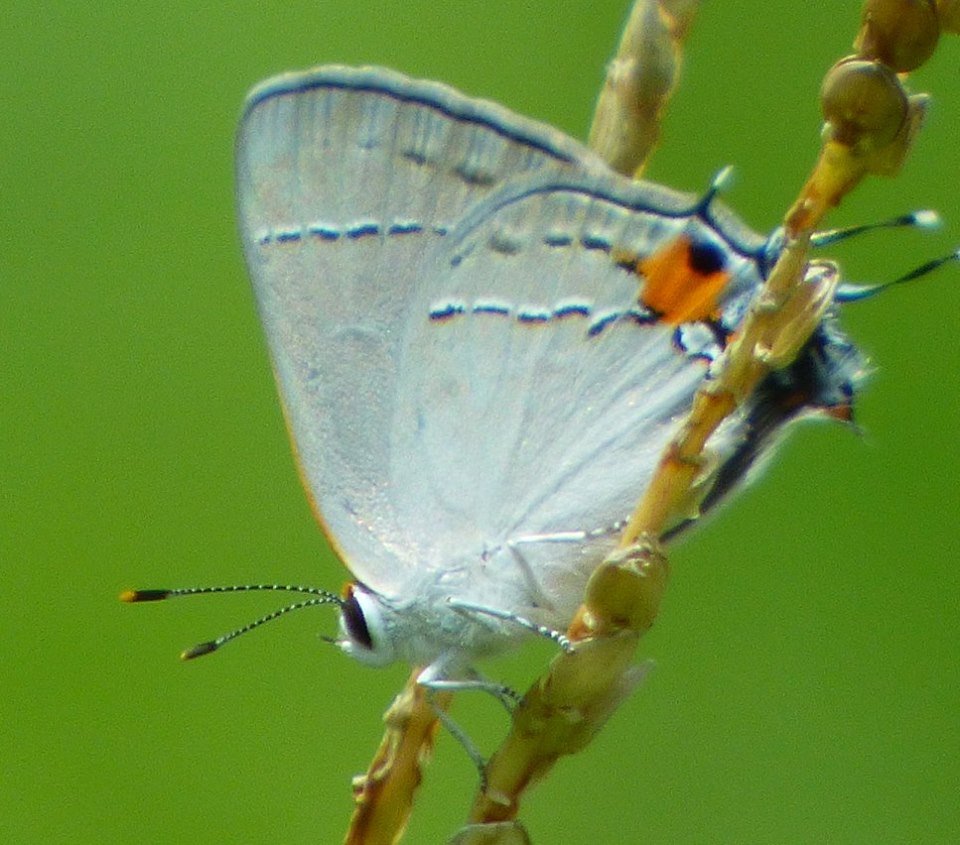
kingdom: Animalia
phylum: Arthropoda
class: Insecta
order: Lepidoptera
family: Lycaenidae
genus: Strymon
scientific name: Strymon melinus
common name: Gray Hairstreak
